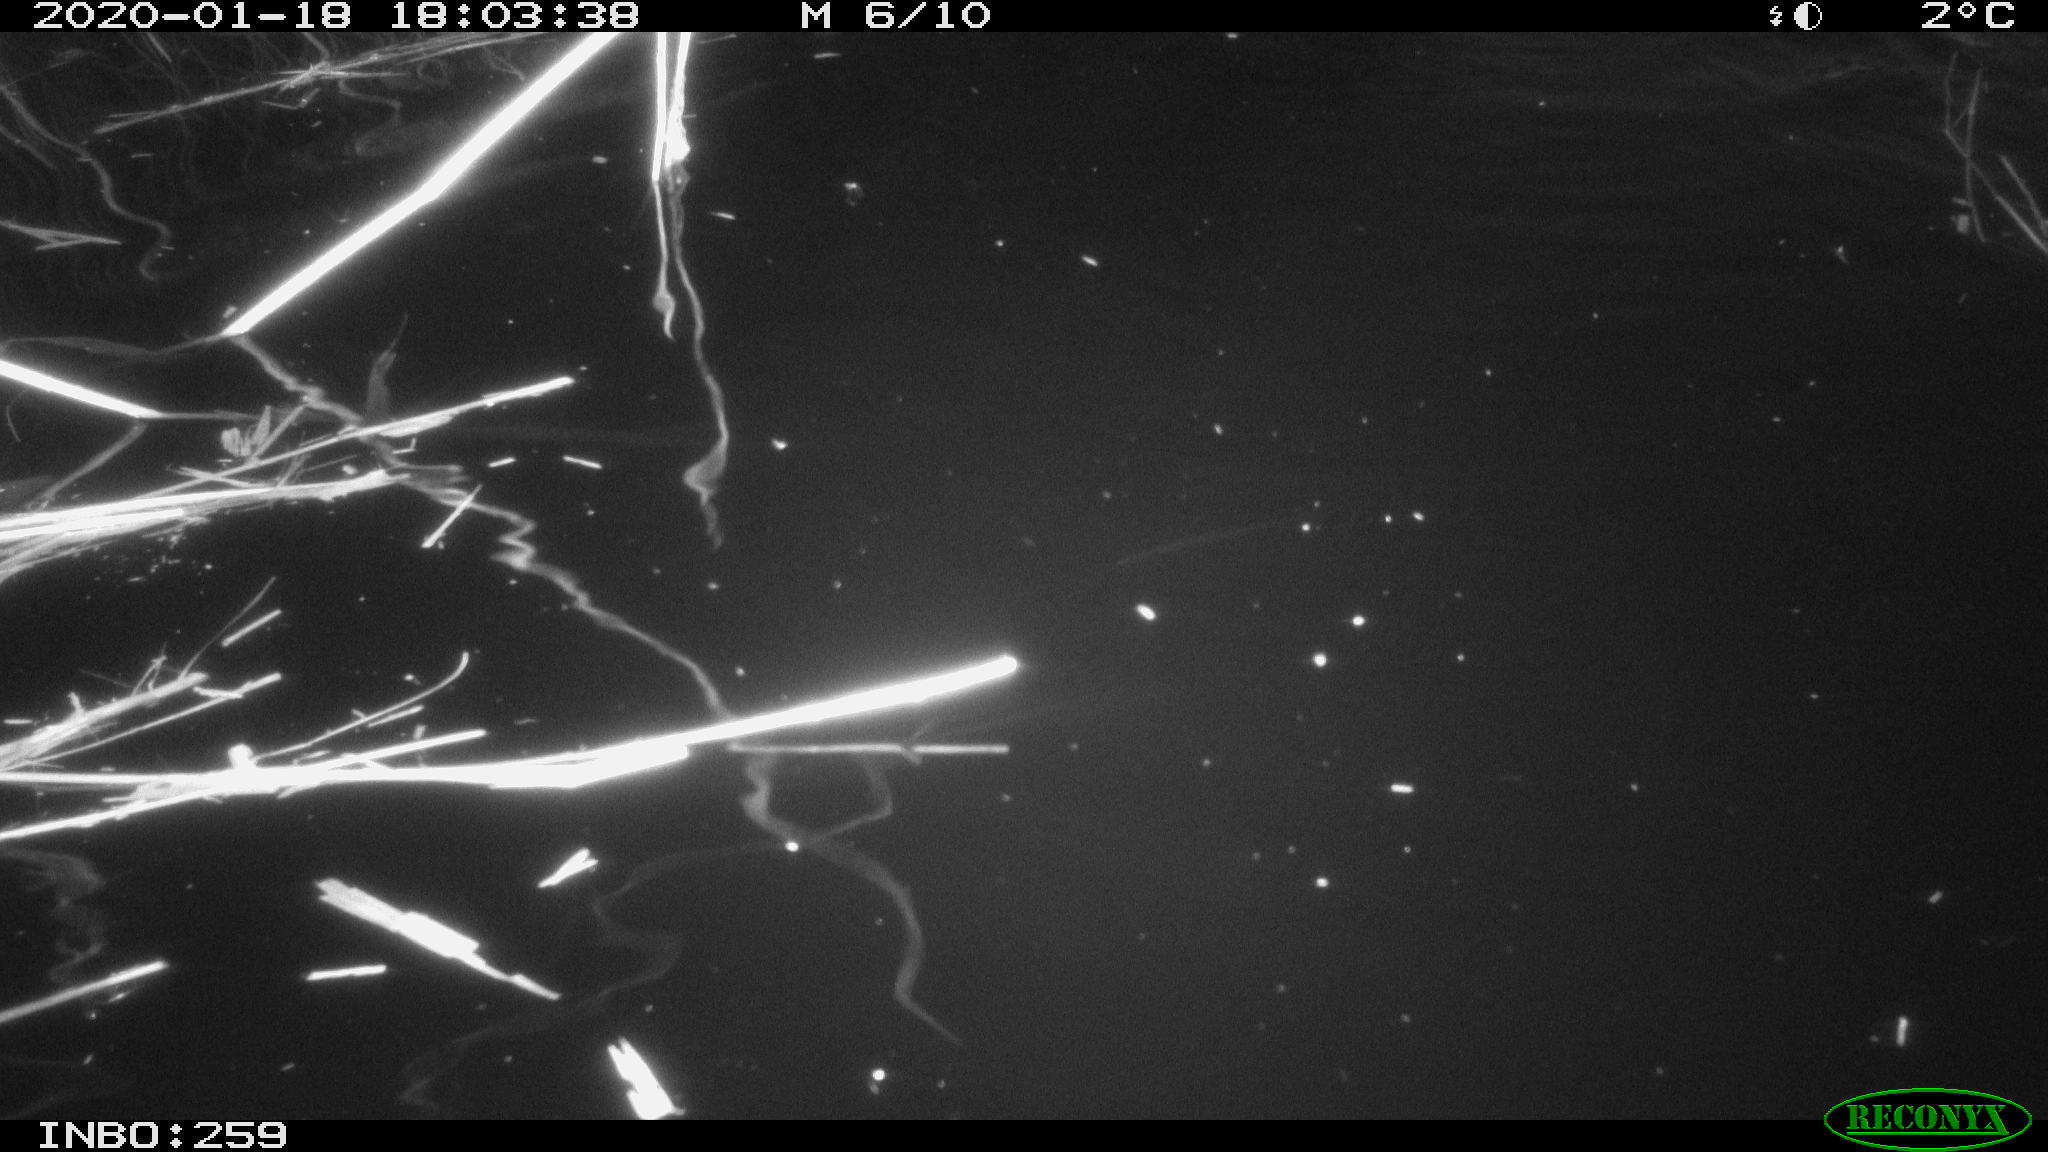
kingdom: Animalia
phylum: Chordata
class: Mammalia
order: Rodentia
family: Cricetidae
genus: Ondatra
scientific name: Ondatra zibethicus
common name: Muskrat
